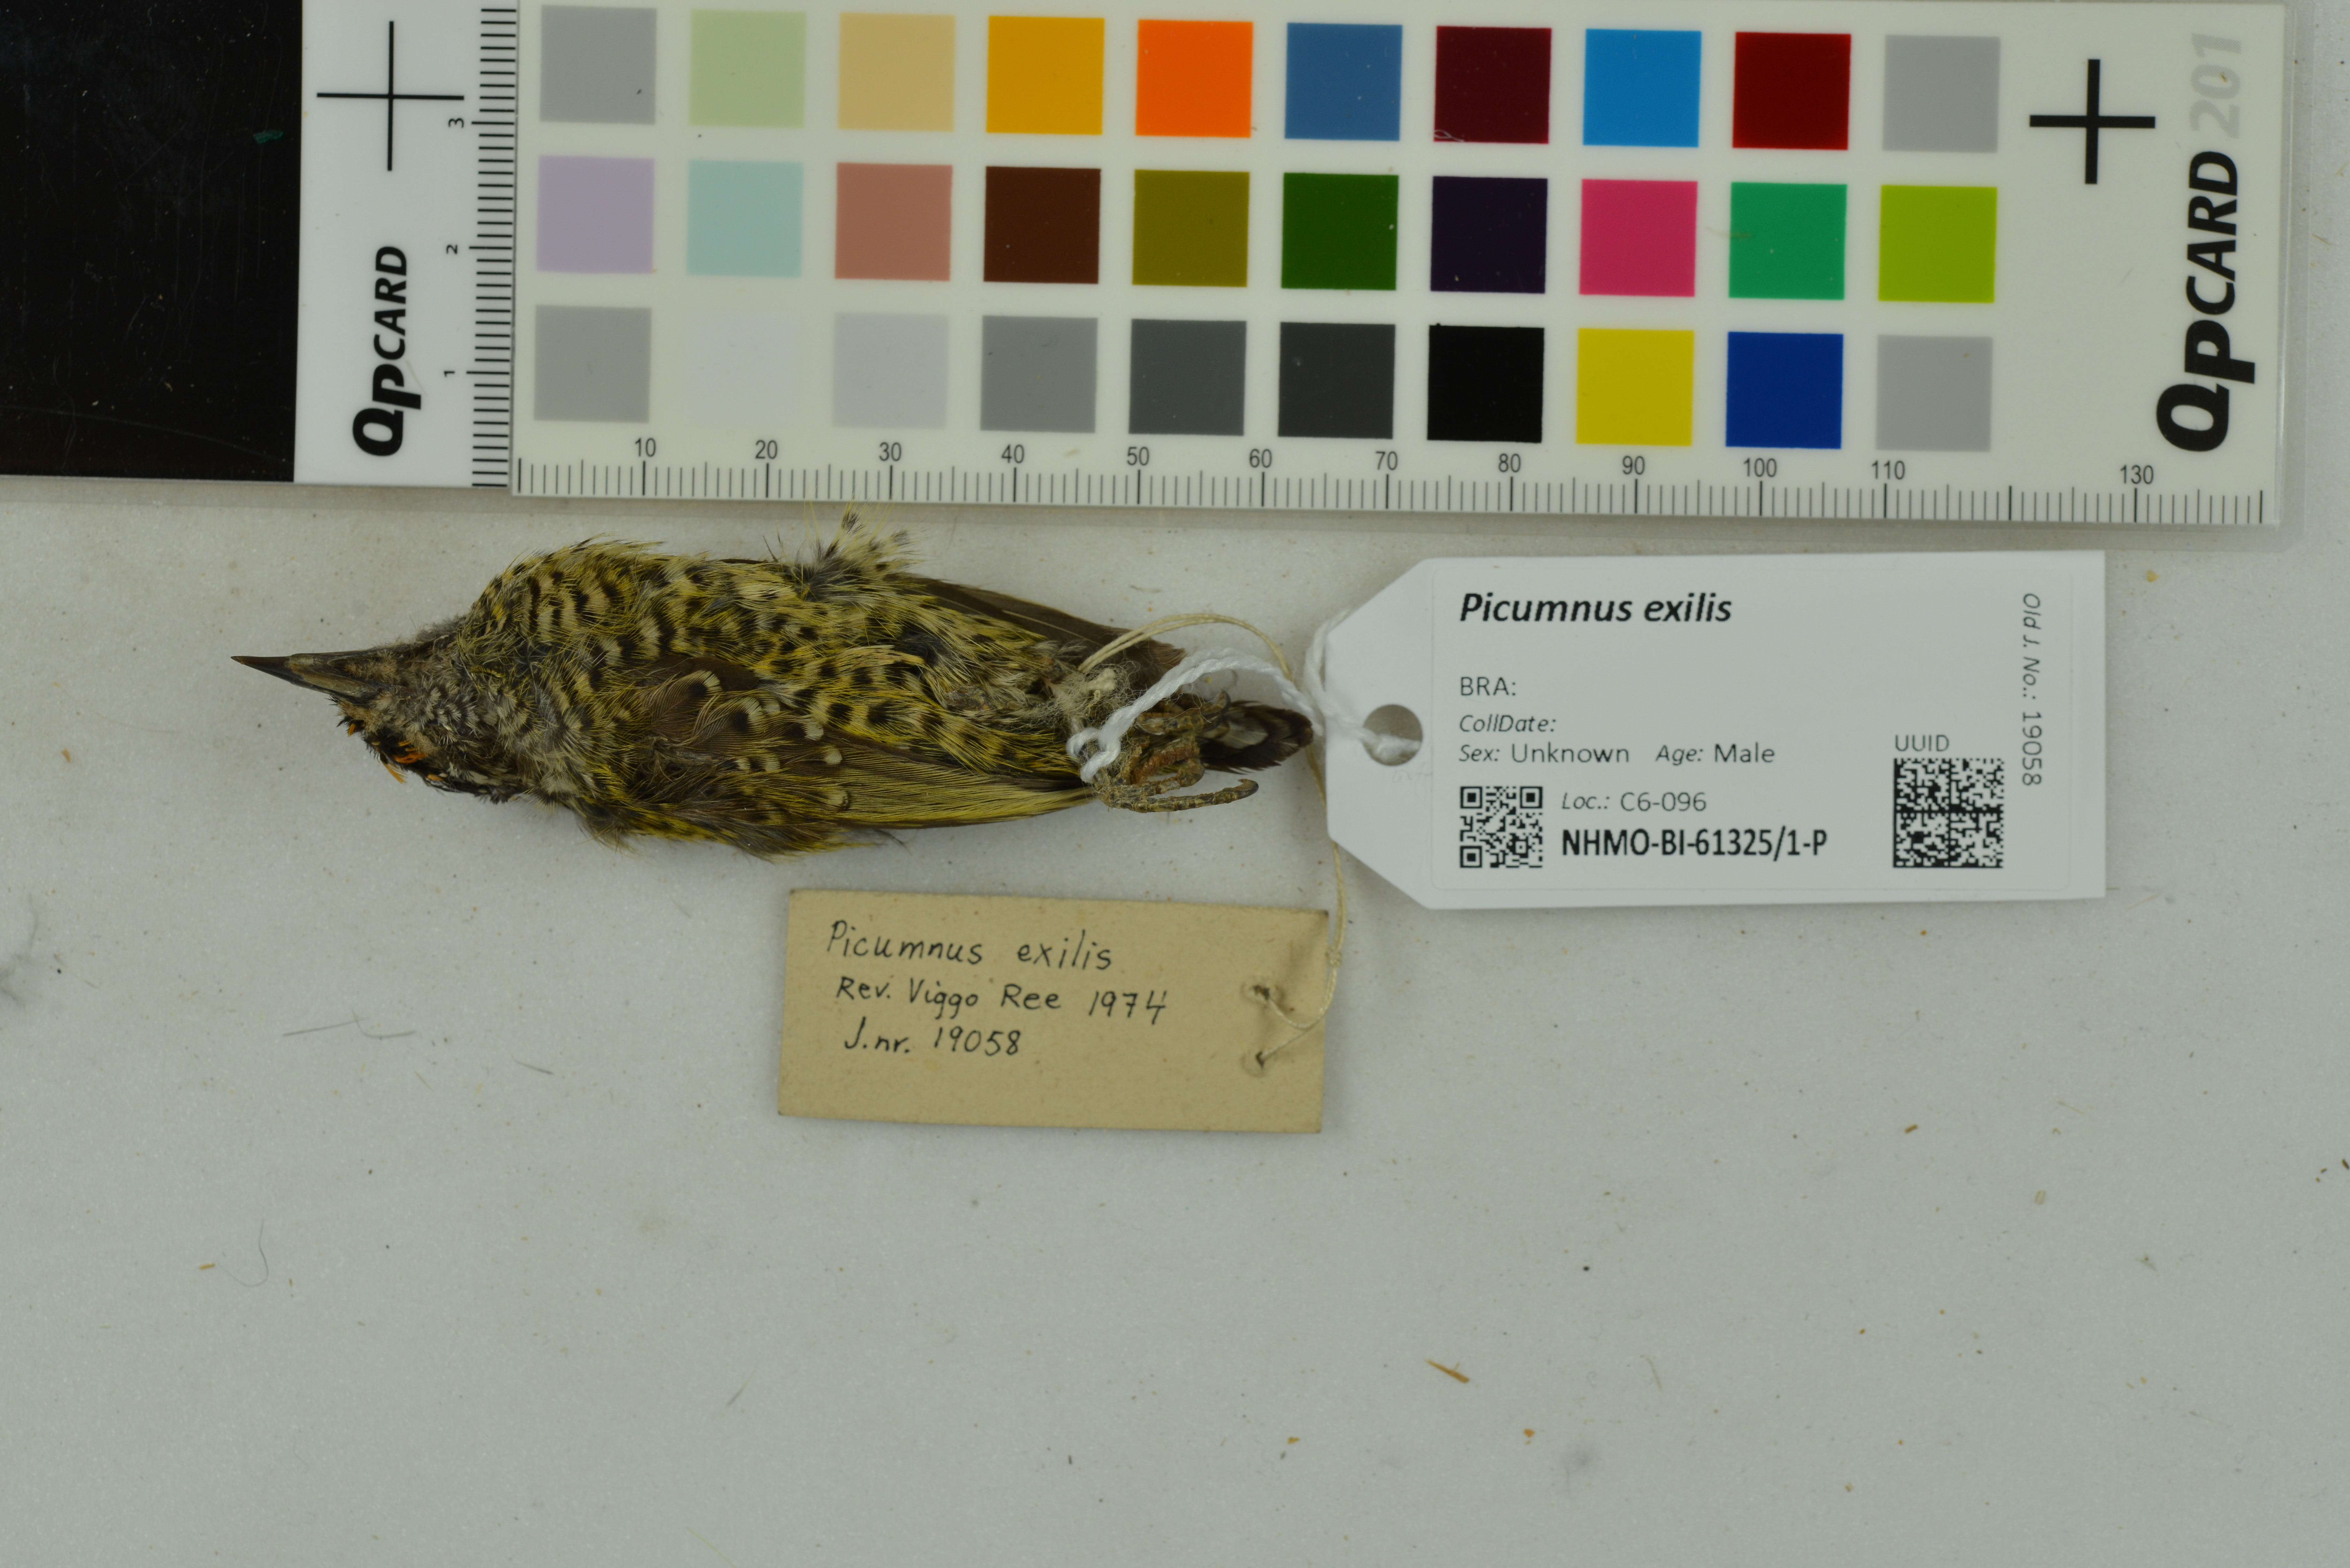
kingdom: Animalia
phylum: Chordata
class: Aves
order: Piciformes
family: Picidae
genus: Picumnus
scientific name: Picumnus exilis
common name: Golden-spangled piculet
